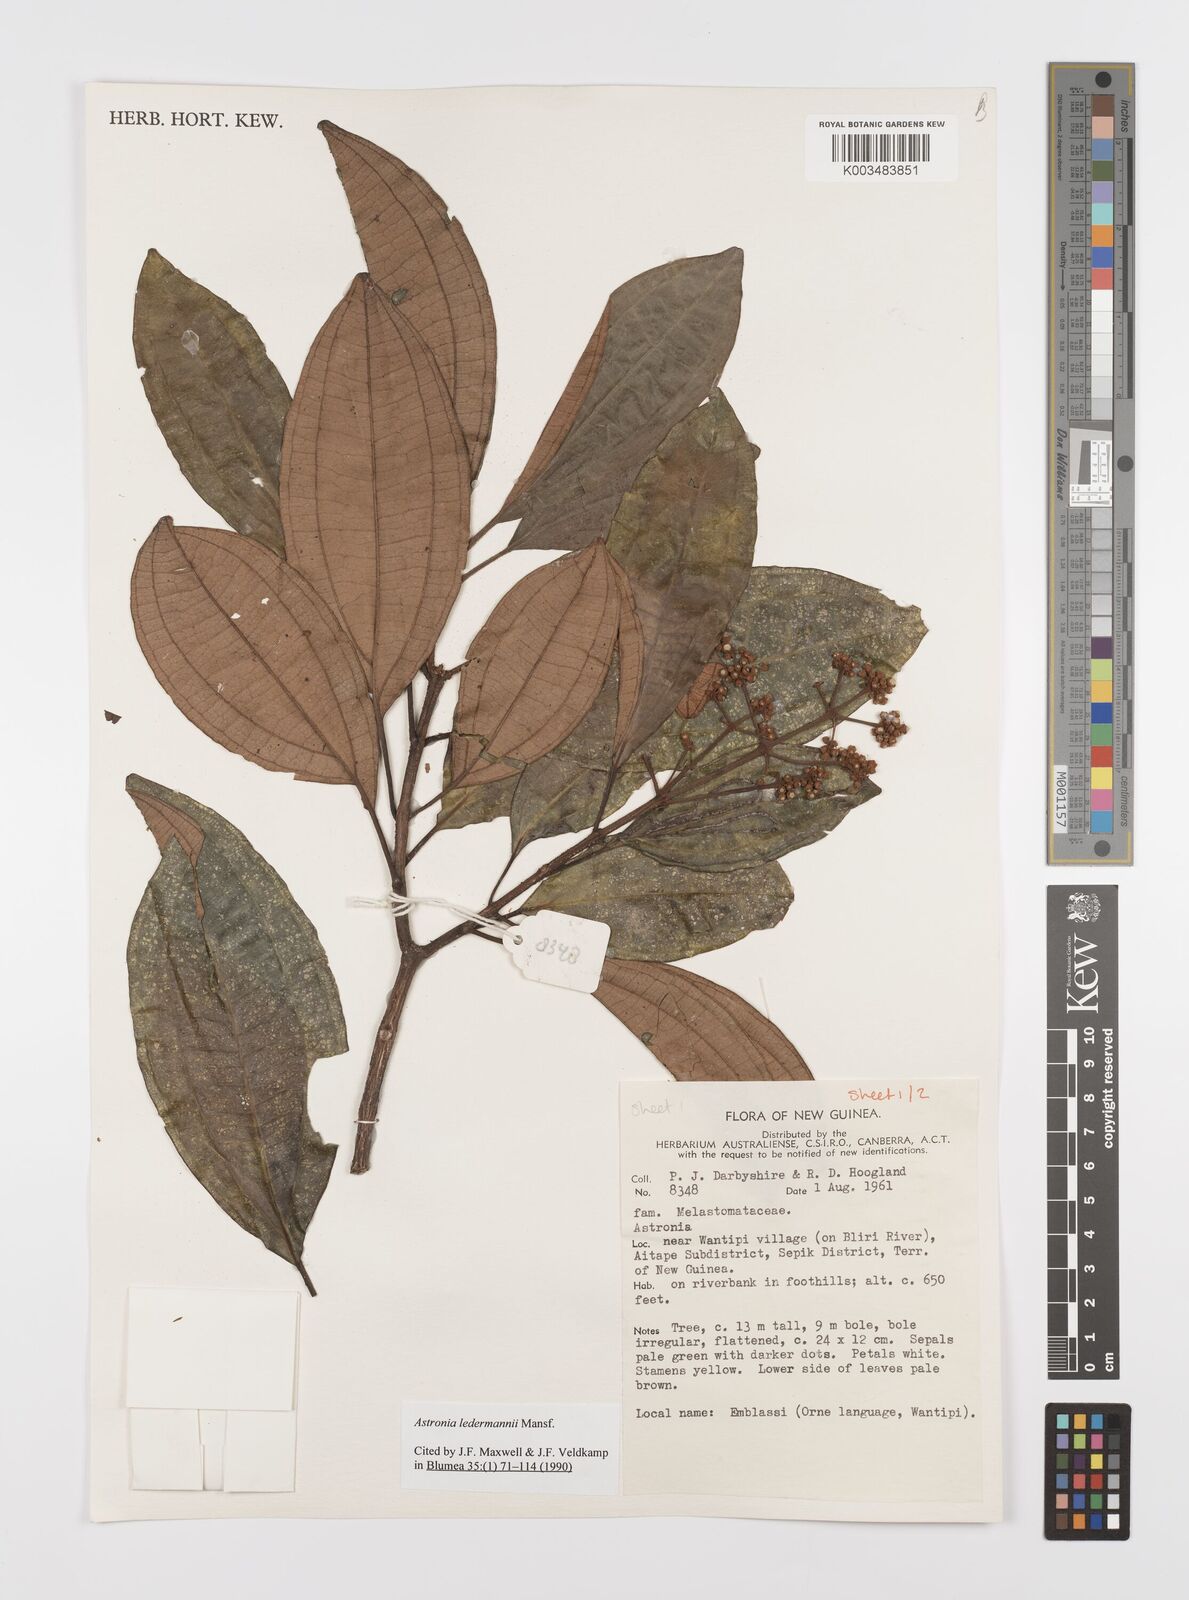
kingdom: Plantae
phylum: Tracheophyta
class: Magnoliopsida
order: Myrtales
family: Melastomataceae
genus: Astronia
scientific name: Astronia ledermannii
